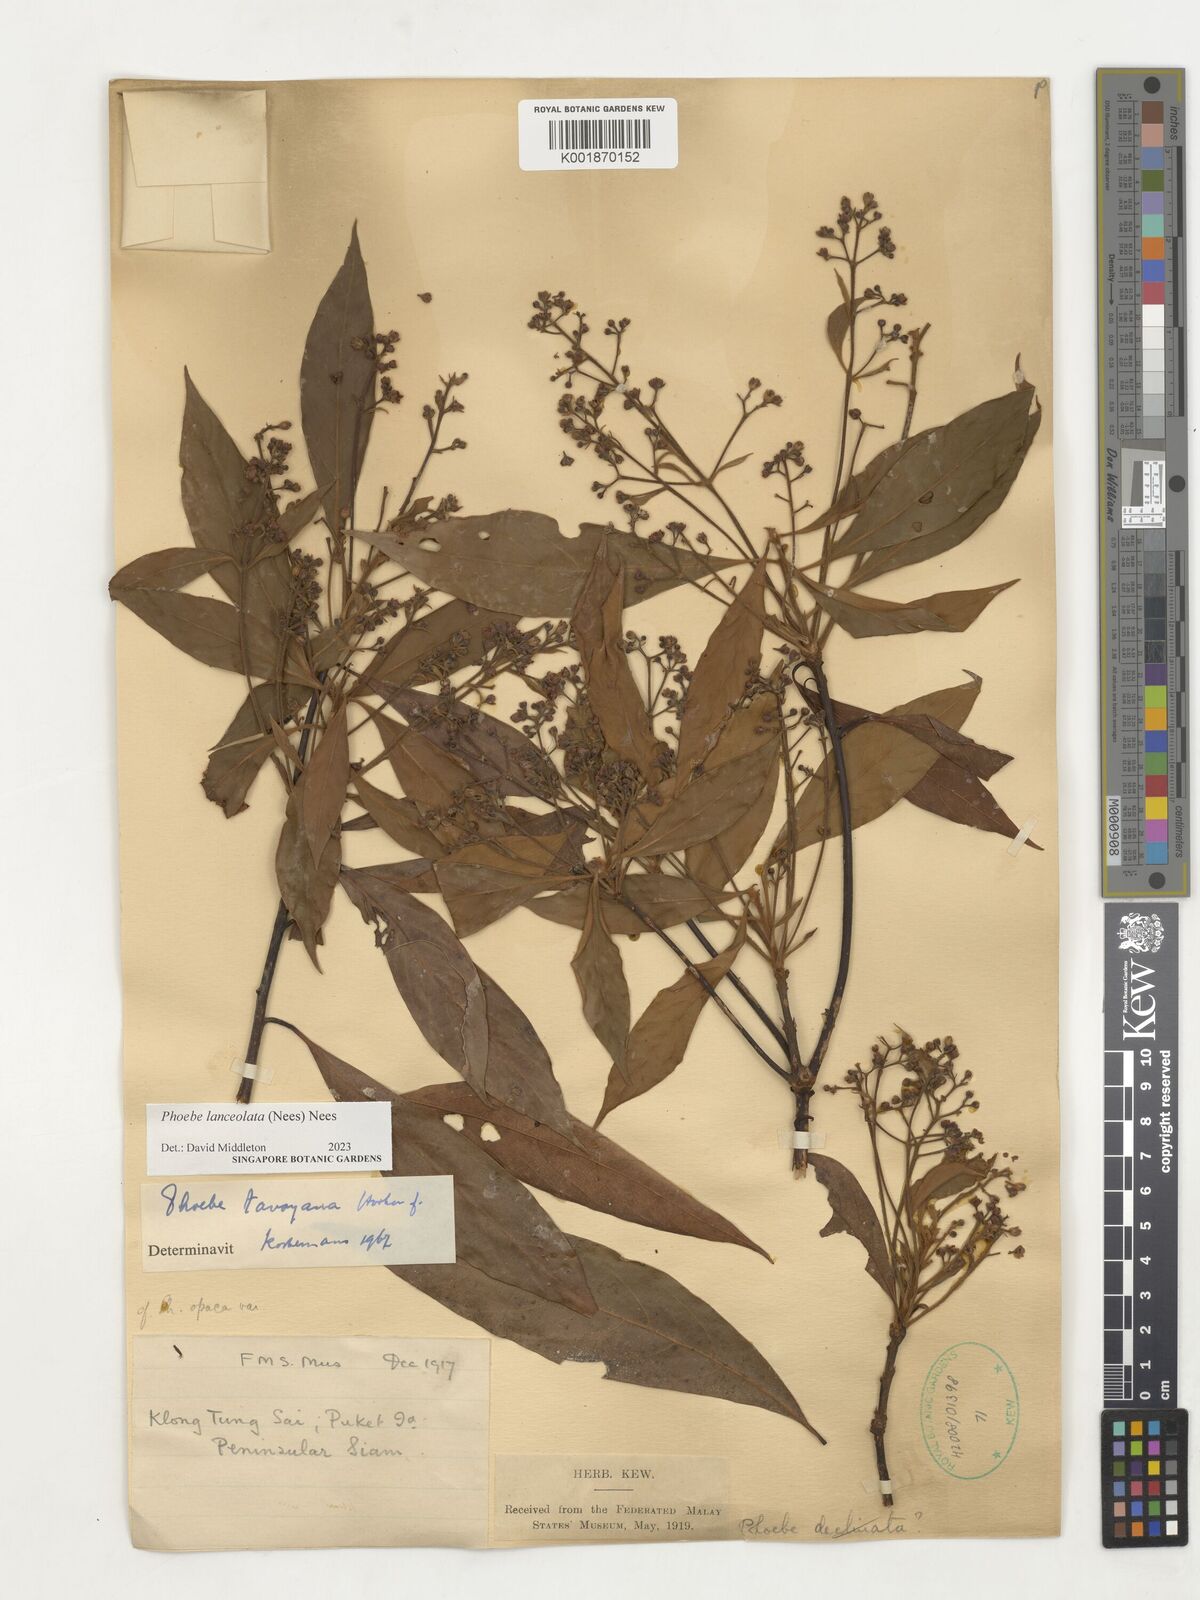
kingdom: Plantae
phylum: Tracheophyta
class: Magnoliopsida
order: Laurales
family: Lauraceae
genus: Phoebe
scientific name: Phoebe lanceolata
